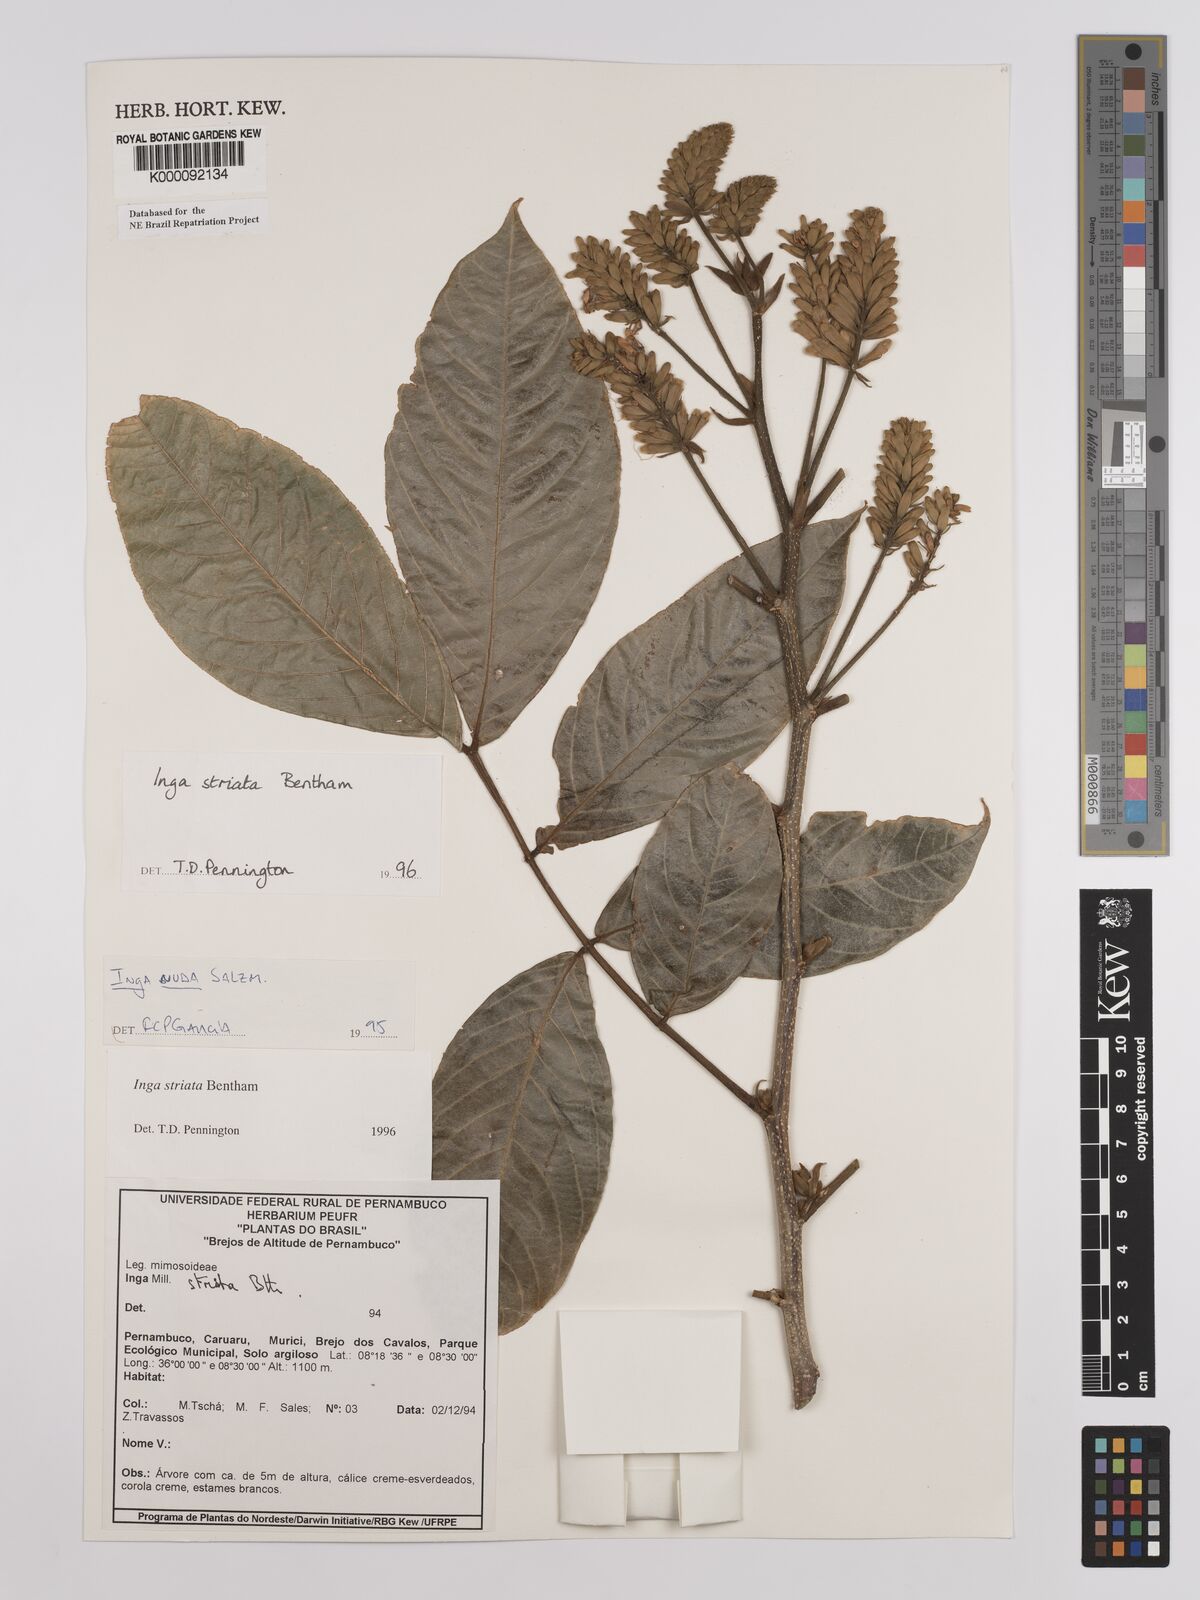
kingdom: Plantae
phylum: Tracheophyta
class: Magnoliopsida
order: Fabales
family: Fabaceae
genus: Inga
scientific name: Inga striata
